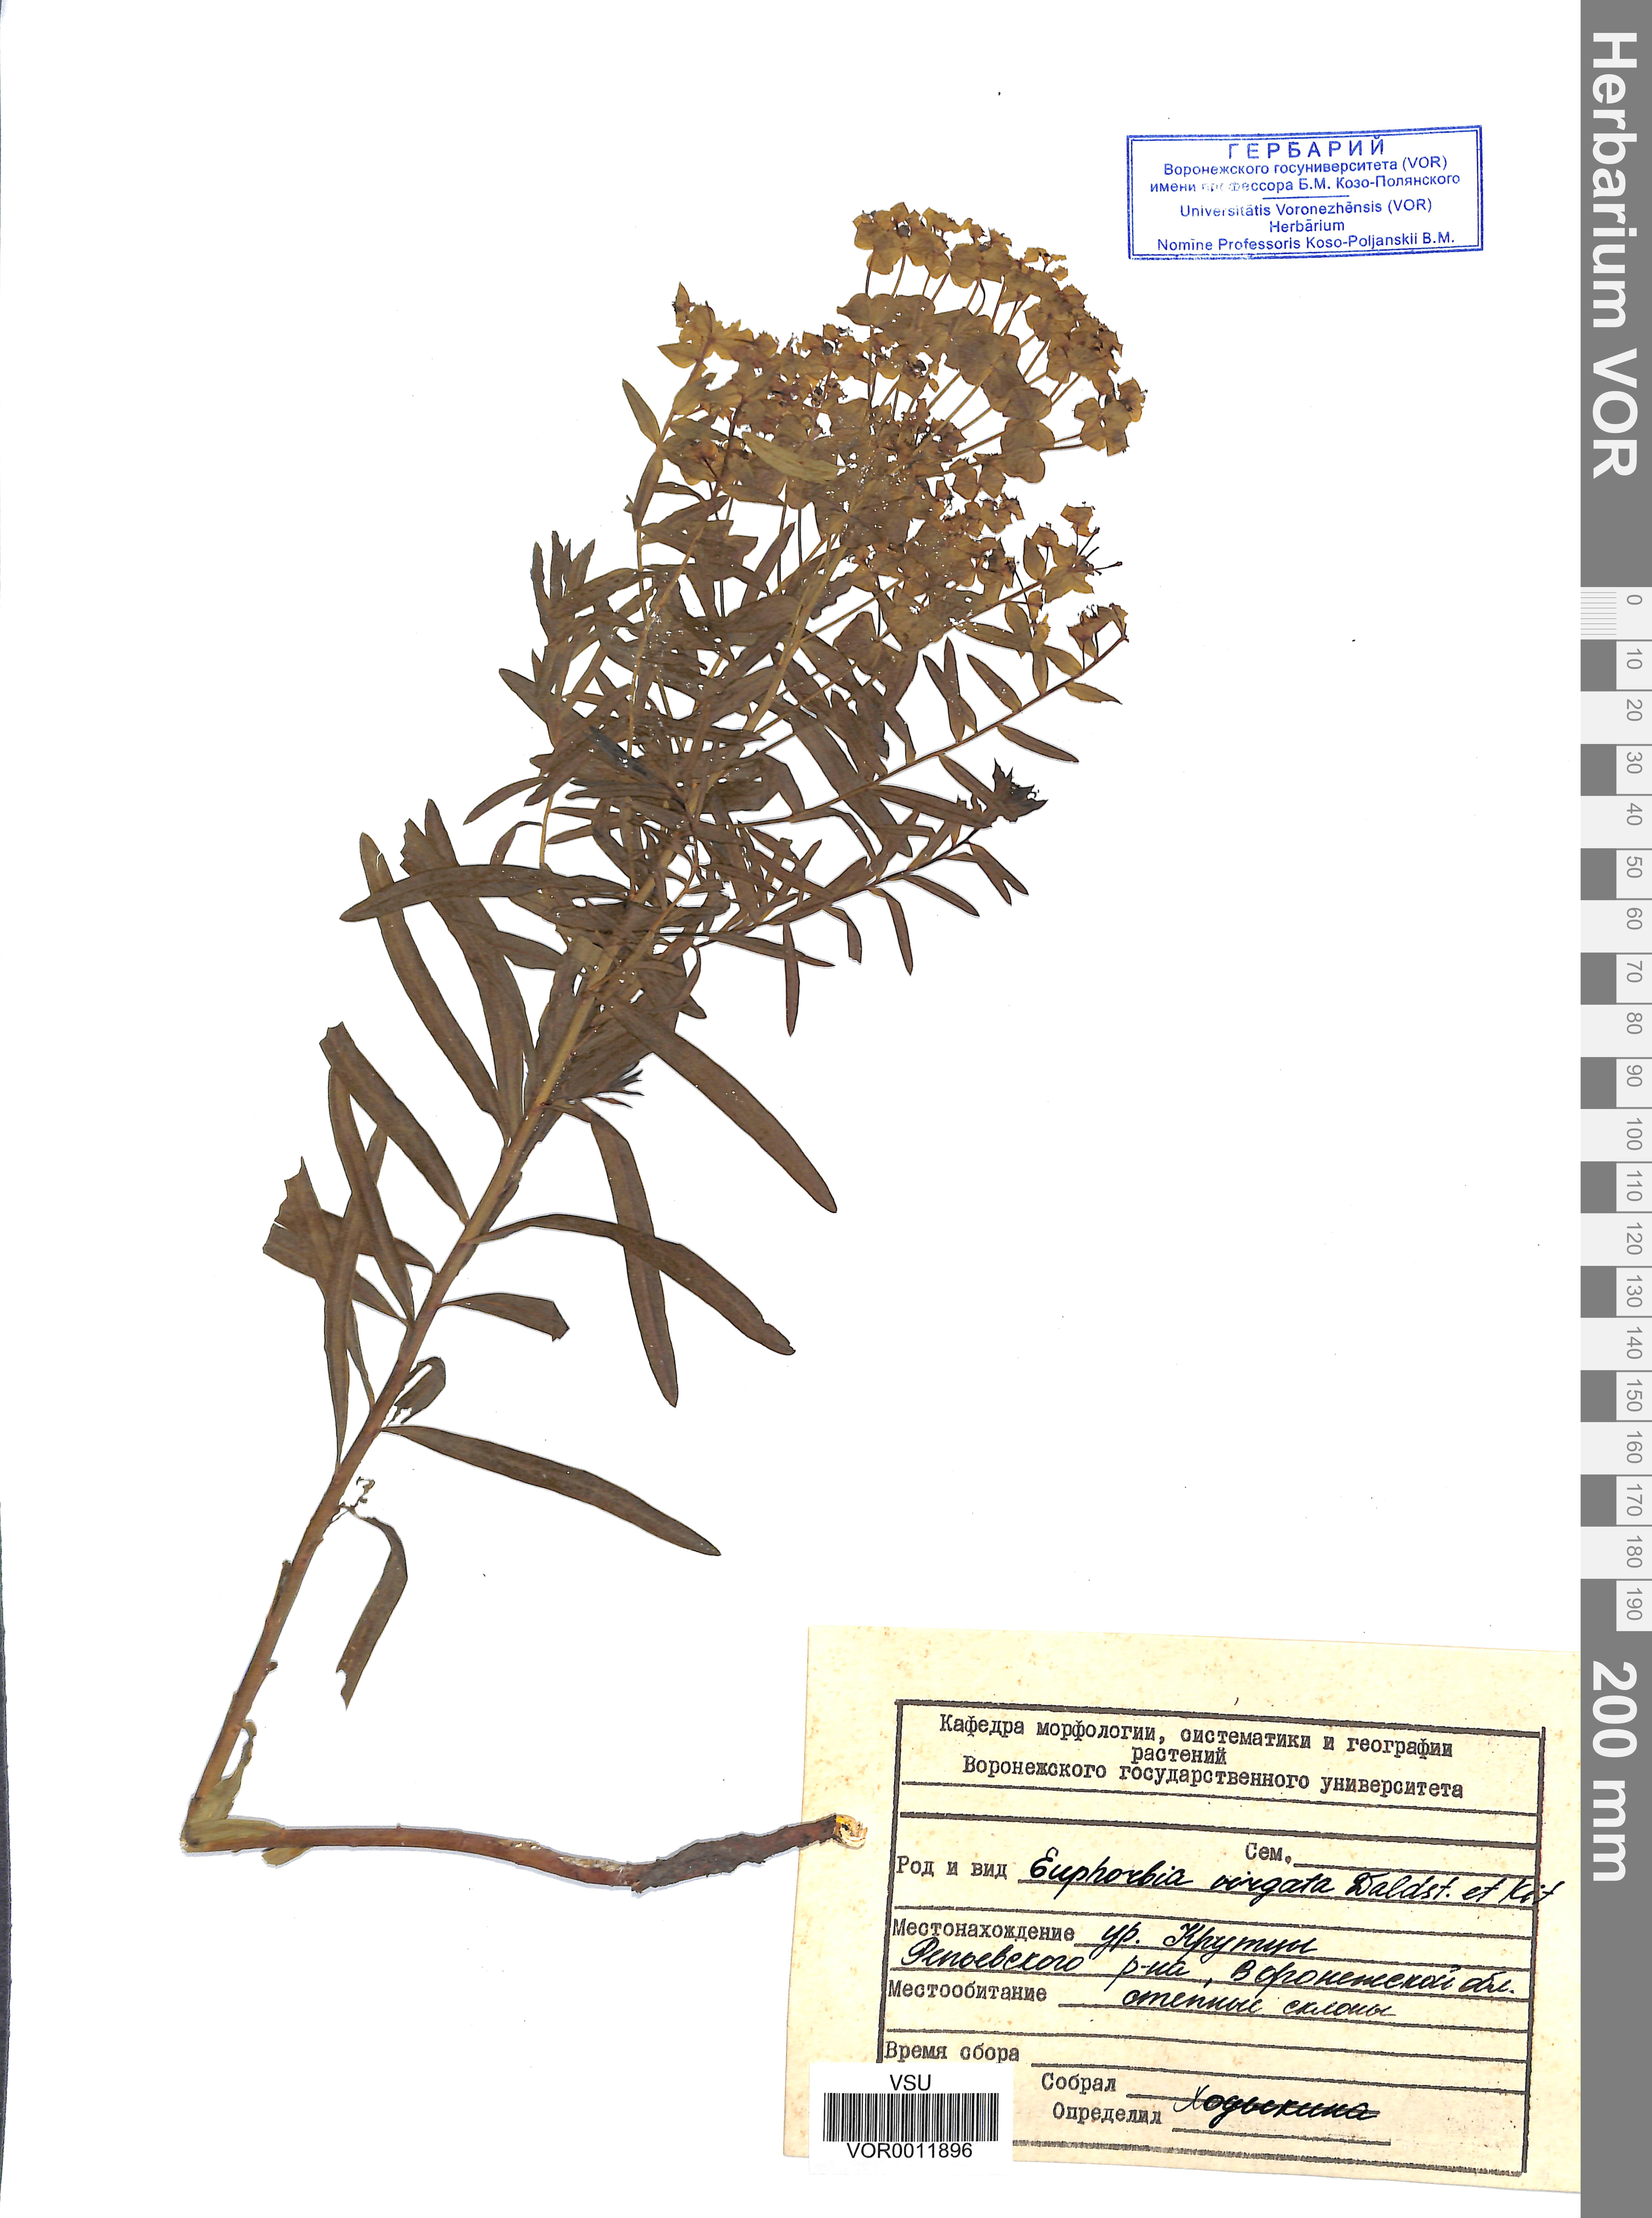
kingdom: Plantae
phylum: Tracheophyta
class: Magnoliopsida
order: Malpighiales
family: Euphorbiaceae
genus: Euphorbia
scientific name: Euphorbia virgata
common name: Leafy spurge
